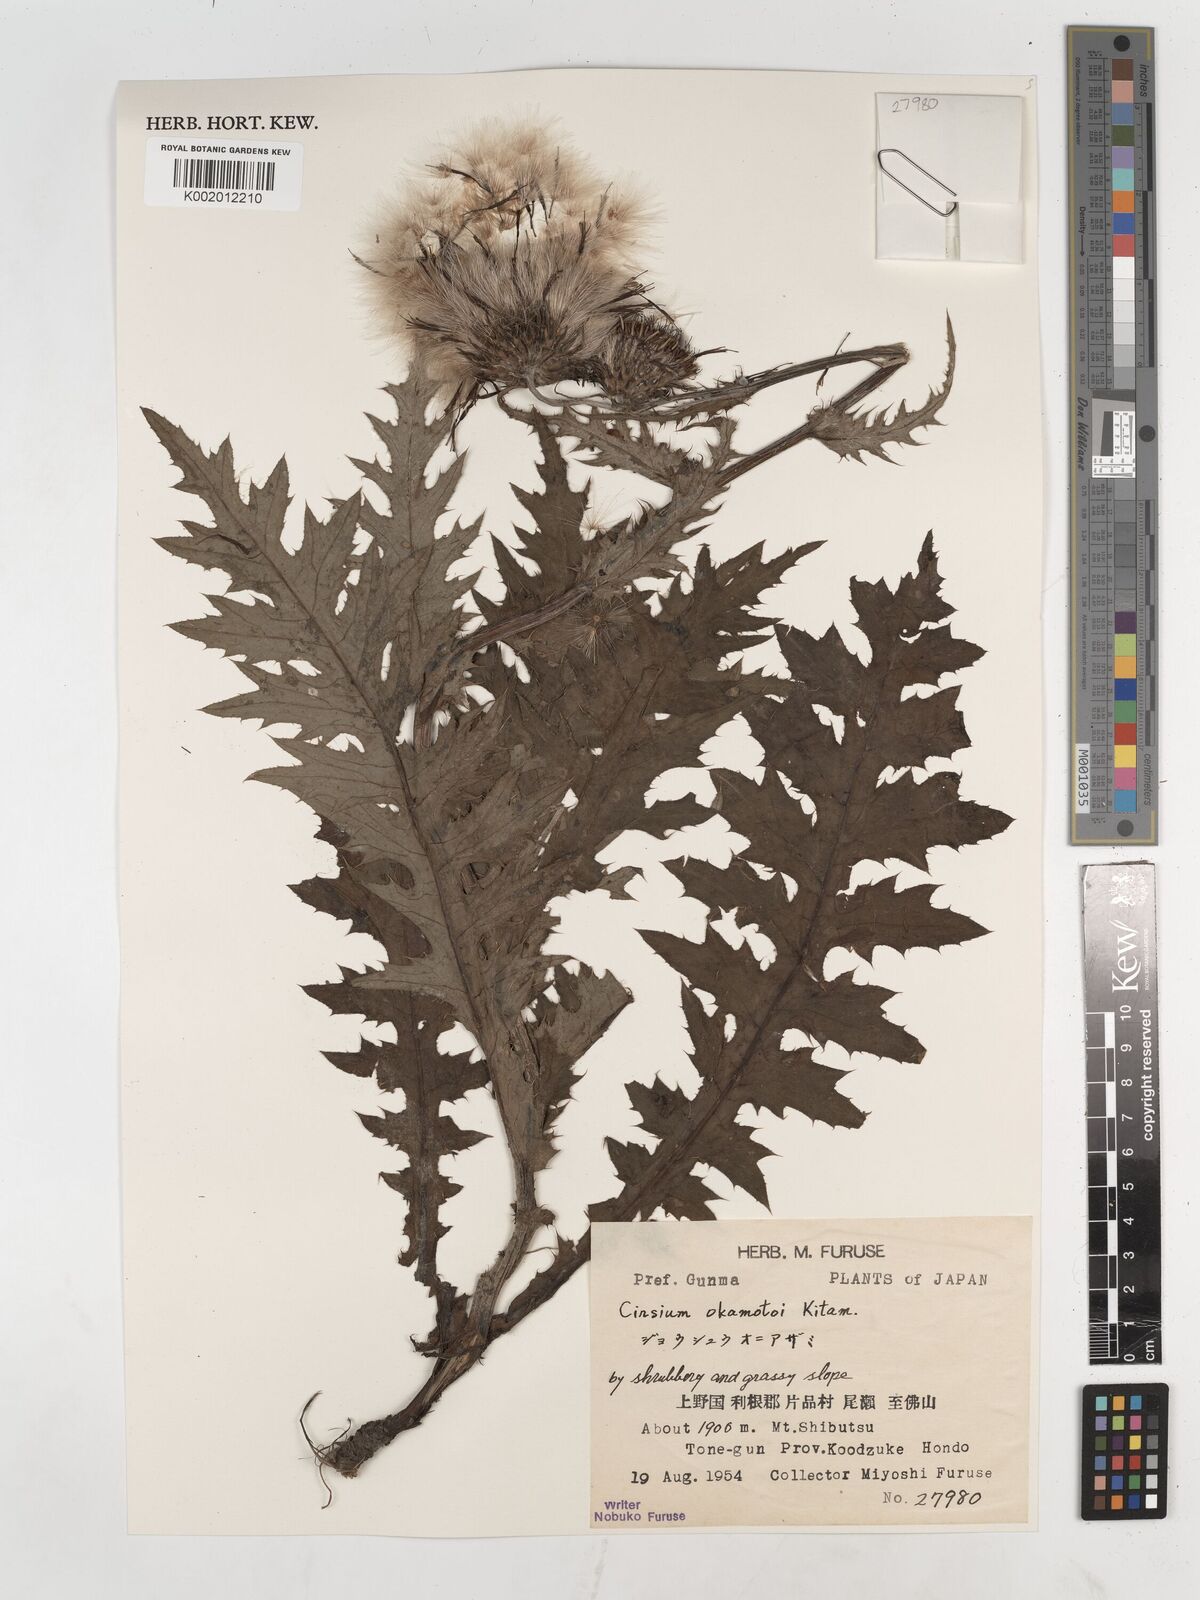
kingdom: Plantae
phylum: Tracheophyta
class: Magnoliopsida
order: Asterales
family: Asteraceae
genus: Cirsium
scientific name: Cirsium okamotoi
